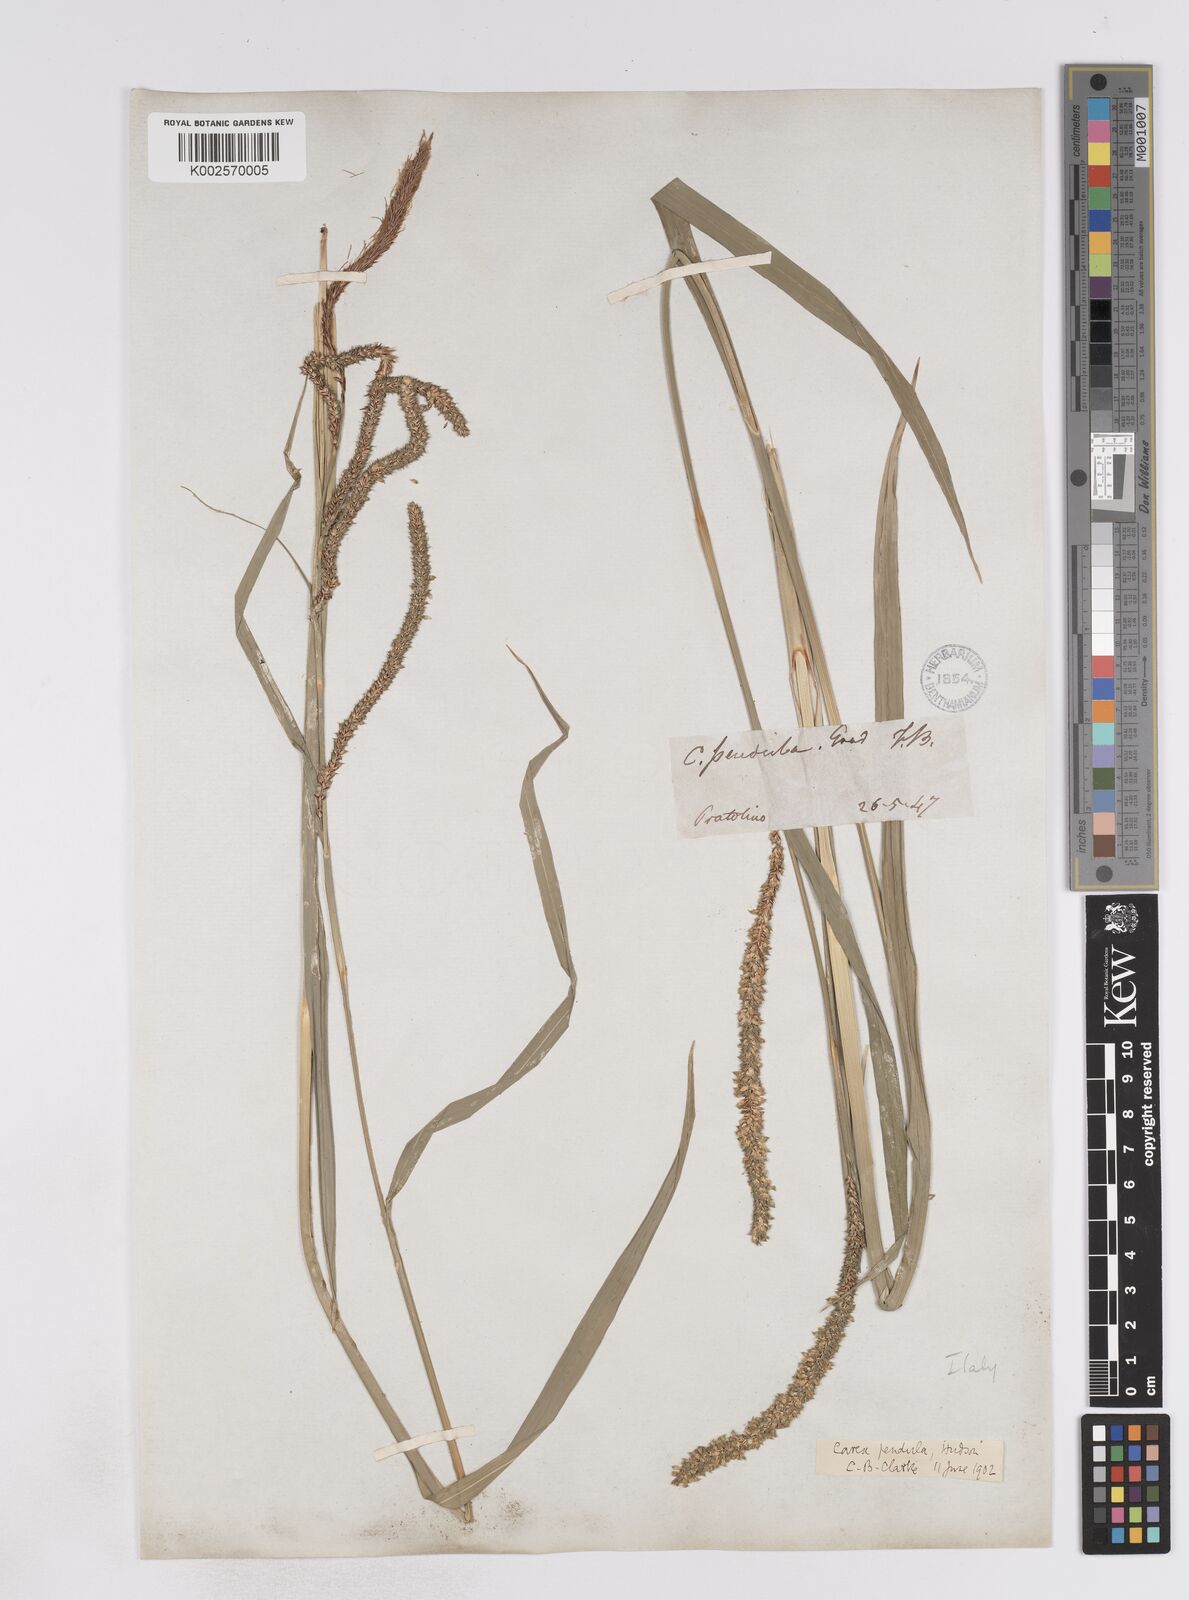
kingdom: Plantae
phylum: Tracheophyta
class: Liliopsida
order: Poales
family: Cyperaceae
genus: Carex
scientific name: Carex pendula
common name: Pendulous sedge
